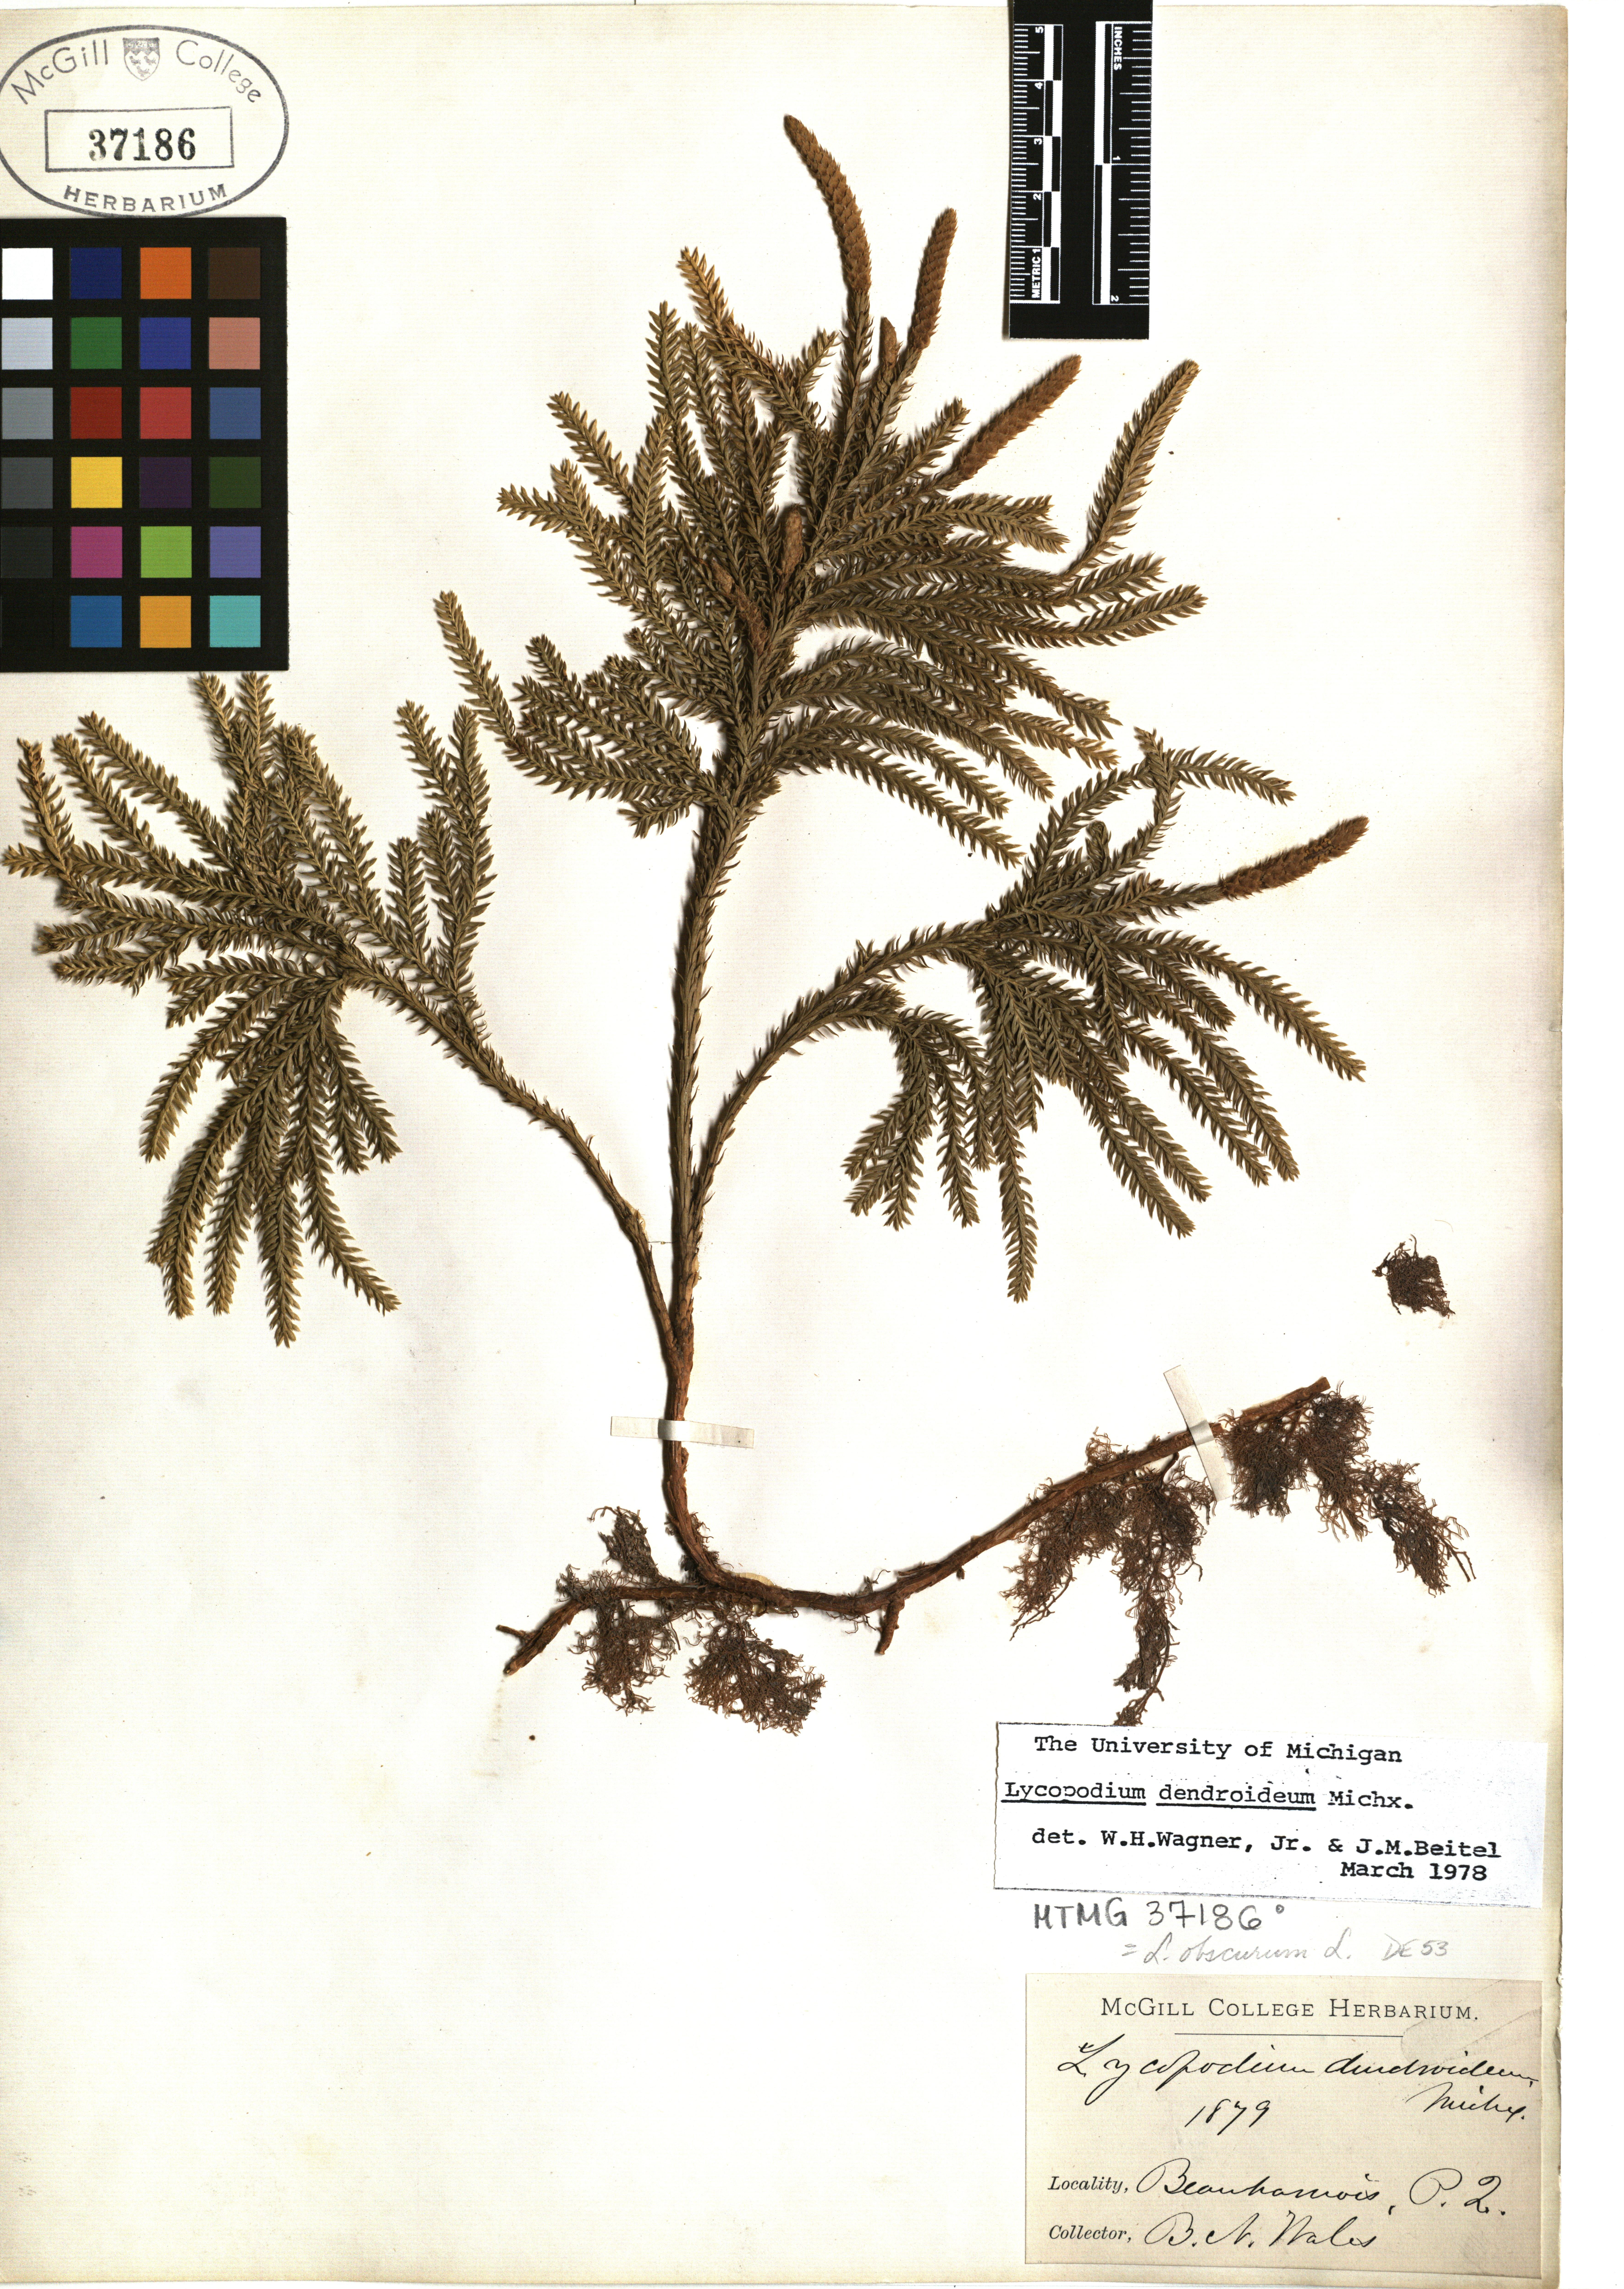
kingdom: Plantae
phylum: Tracheophyta
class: Lycopodiopsida
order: Lycopodiales
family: Lycopodiaceae
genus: Dendrolycopodium
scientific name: Dendrolycopodium dendroideum
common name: Northern tree-clubmoss
